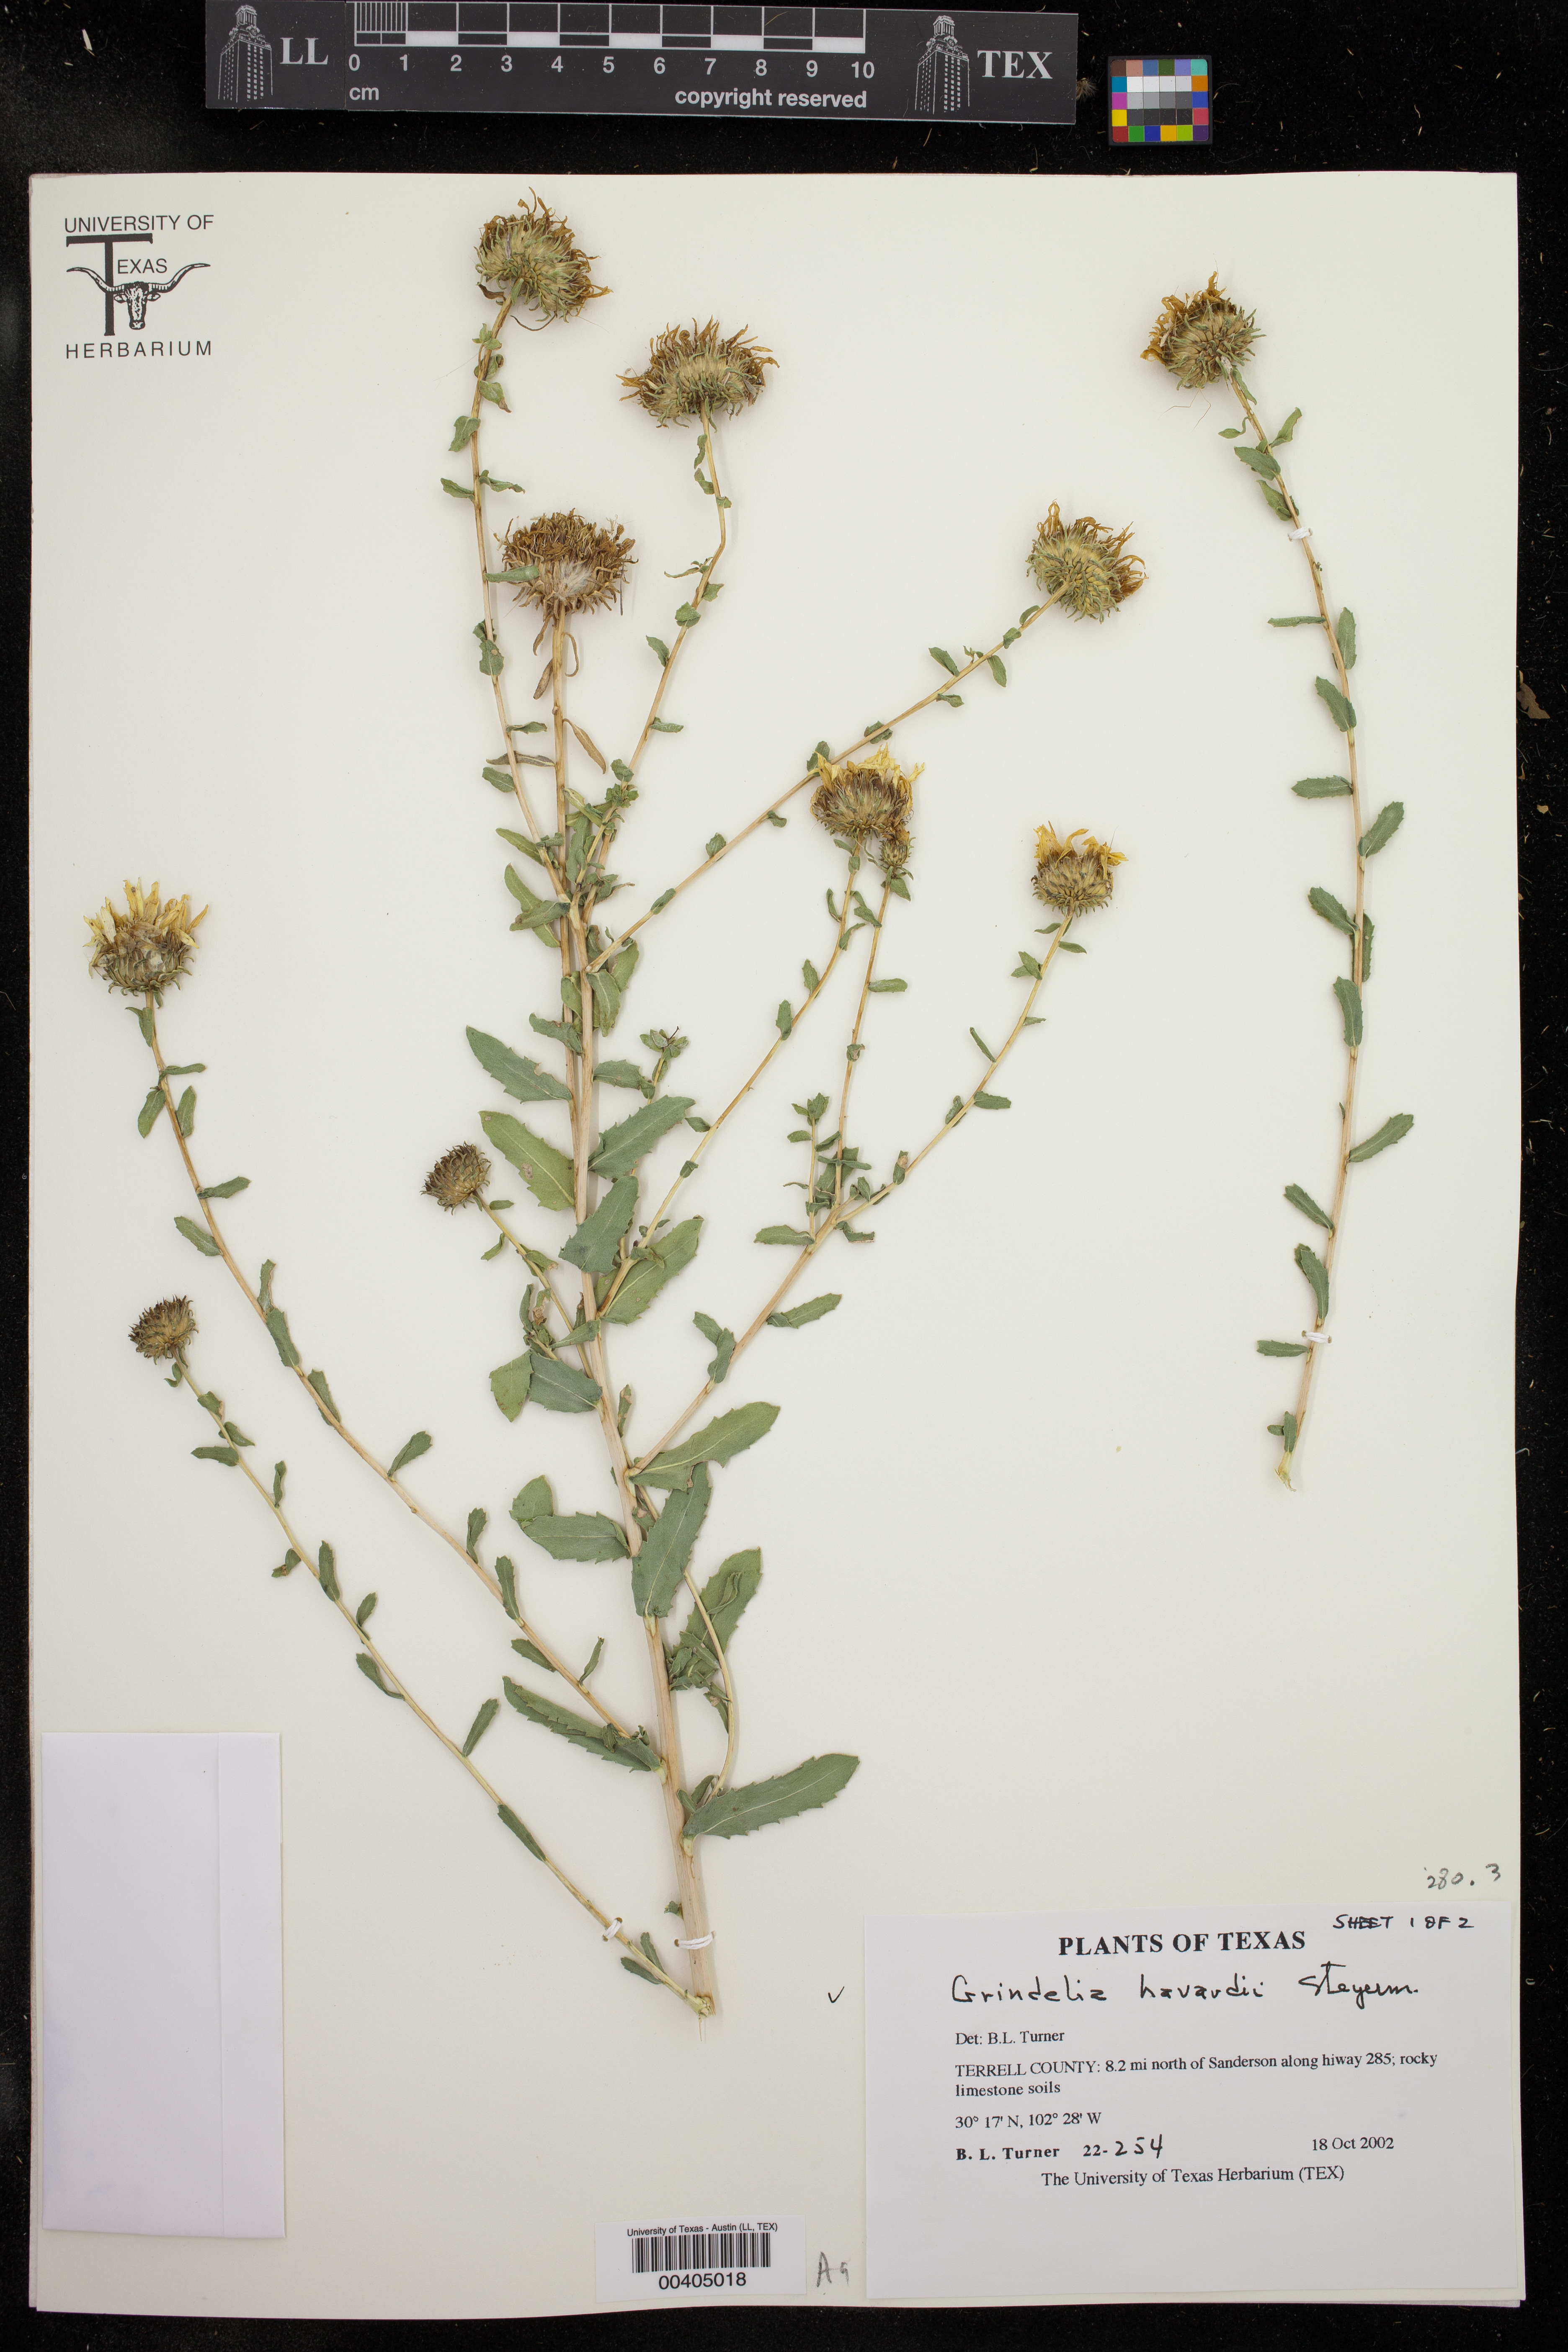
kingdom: Plantae
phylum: Tracheophyta
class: Magnoliopsida
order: Asterales
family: Asteraceae
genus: Grindelia
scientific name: Grindelia havardii
